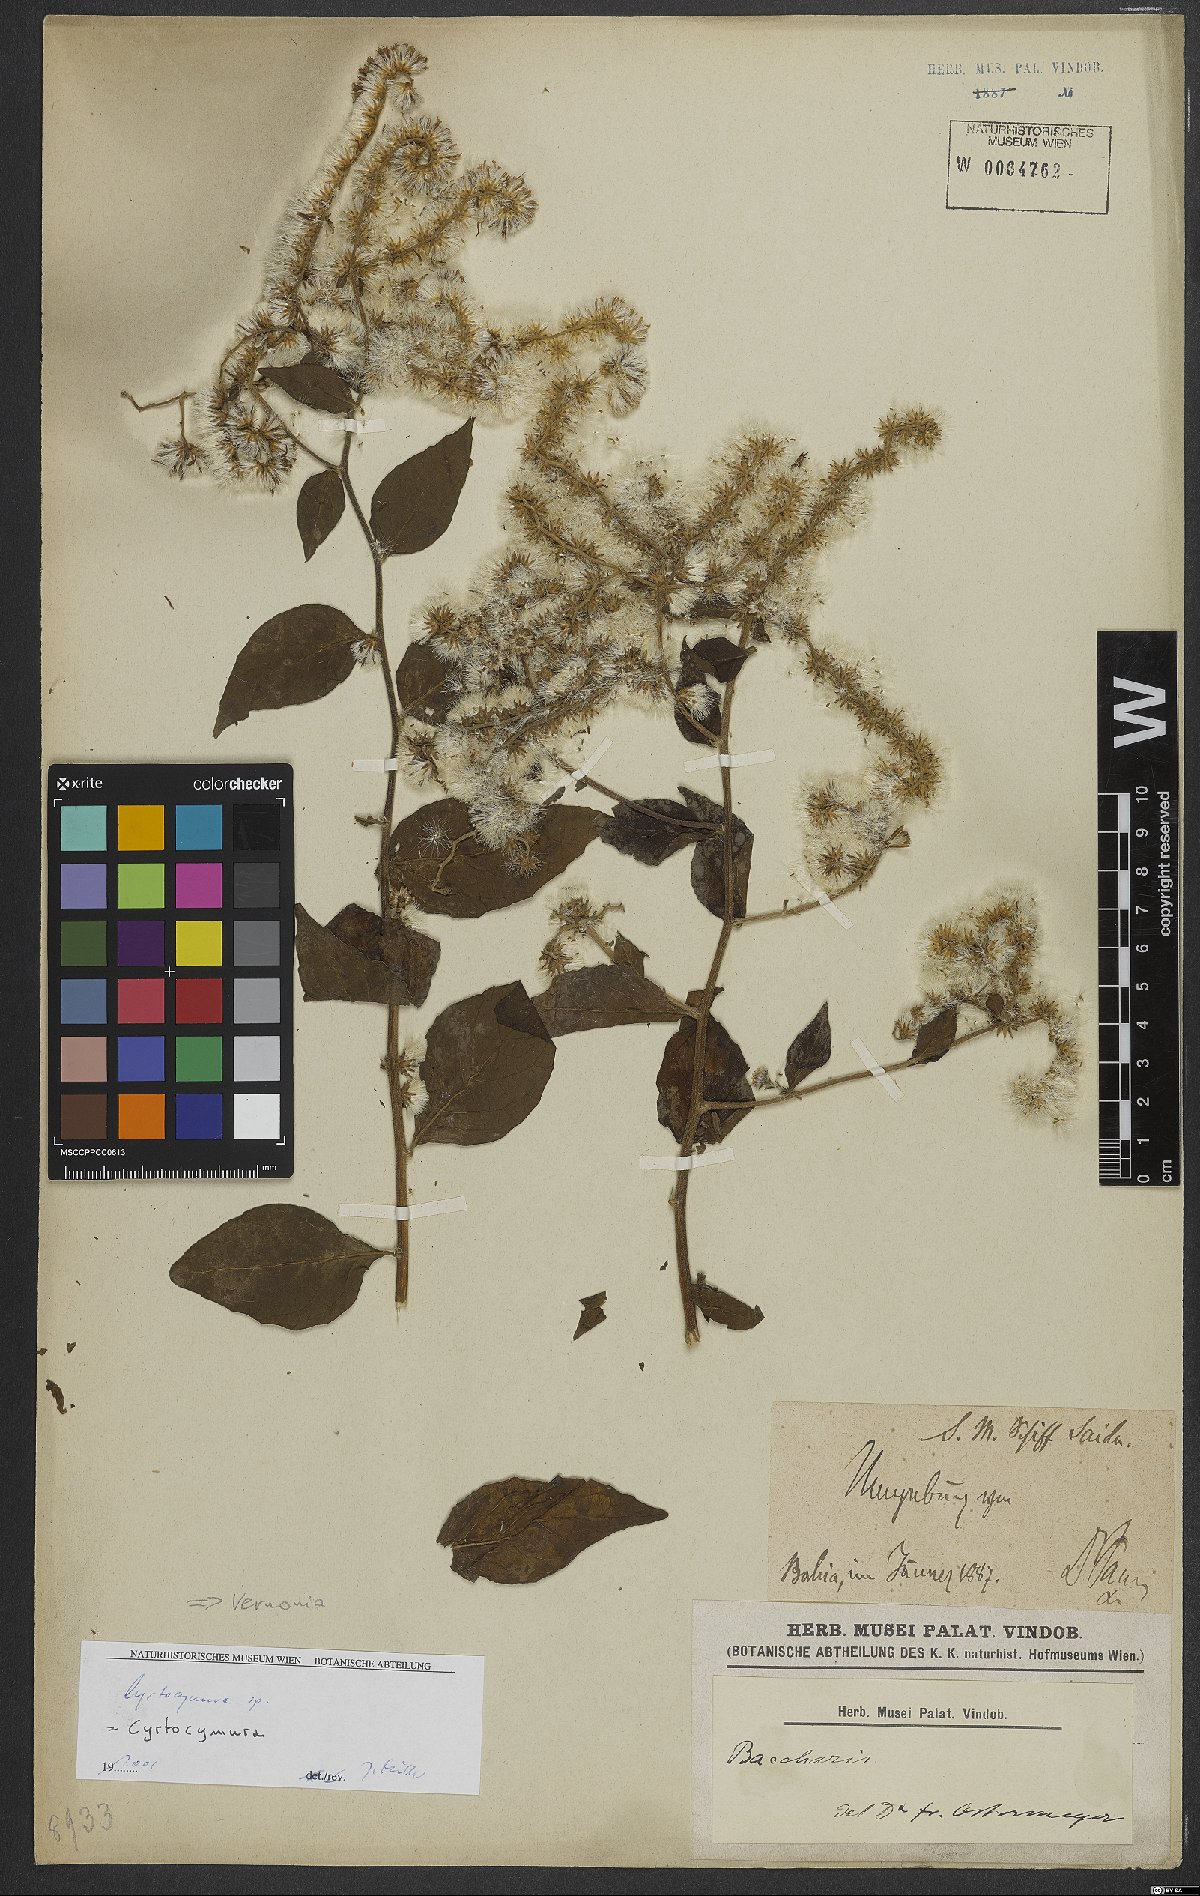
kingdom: Plantae
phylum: Tracheophyta
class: Magnoliopsida
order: Asterales
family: Asteraceae
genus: Vernonia
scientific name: Vernonia
